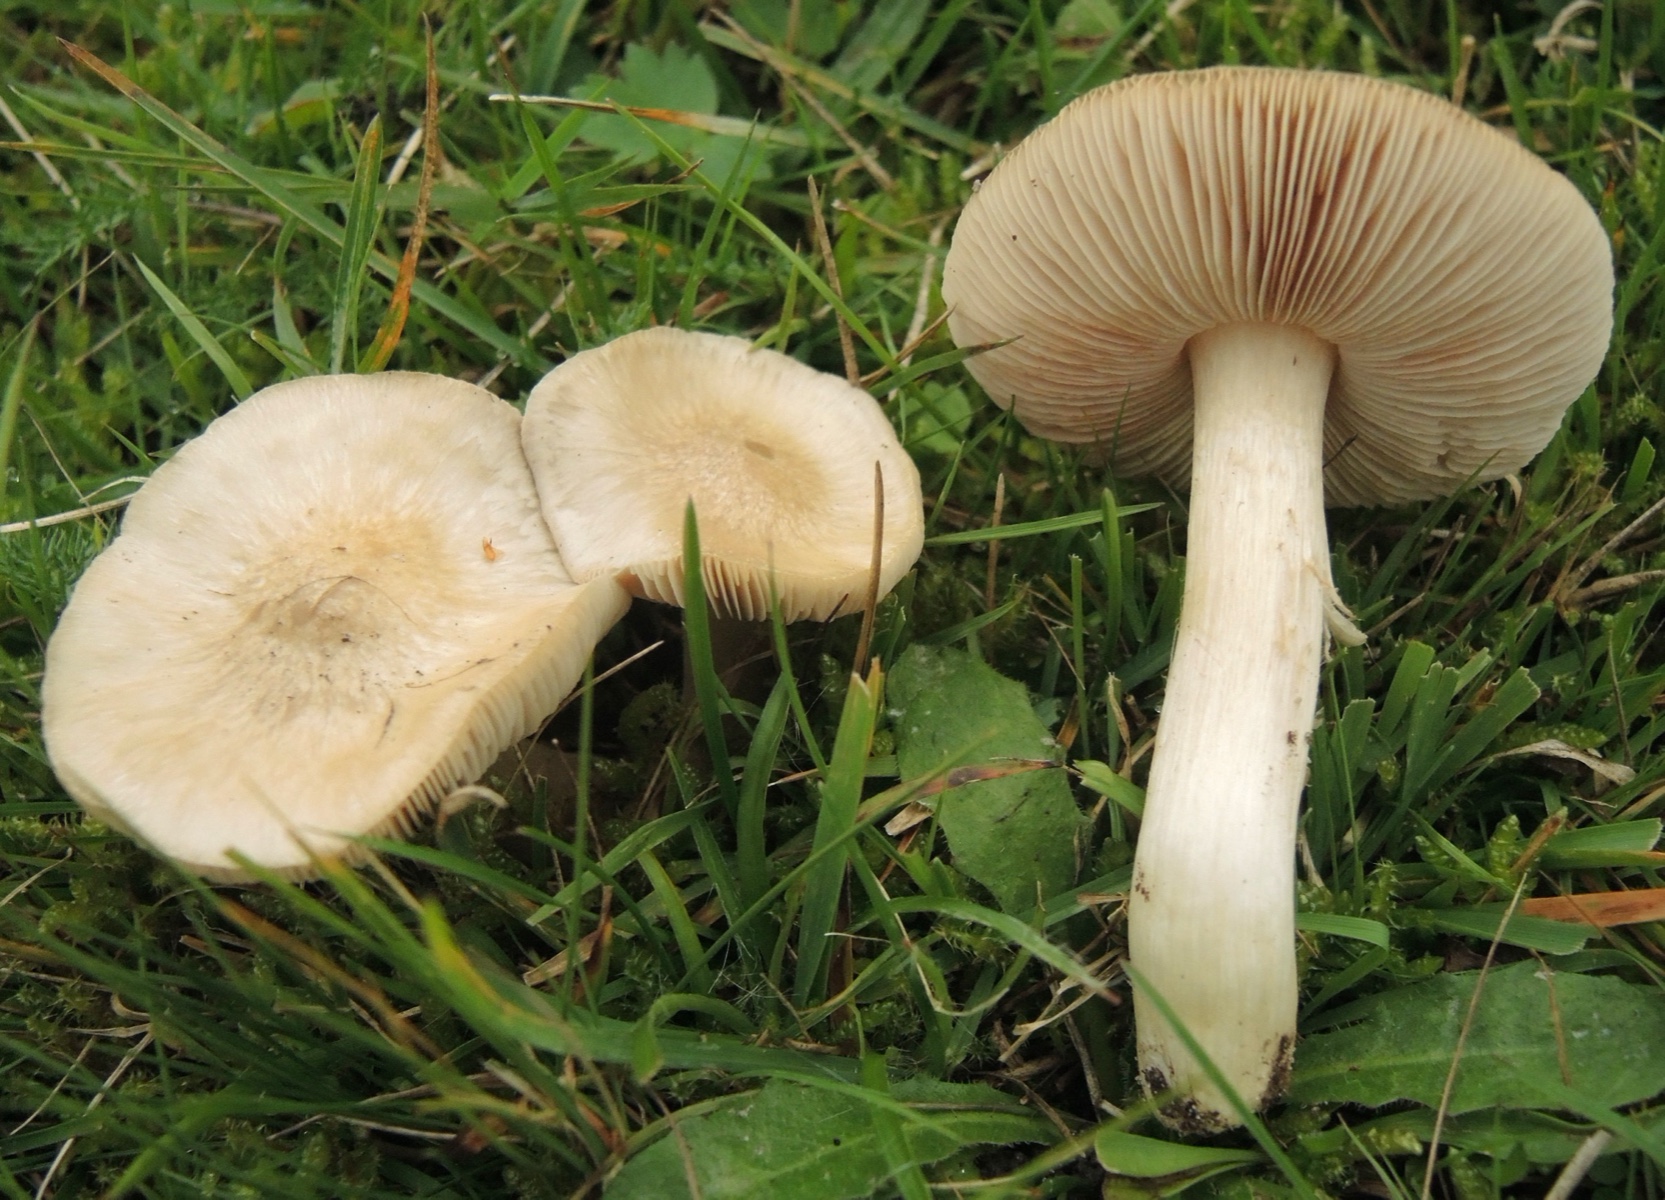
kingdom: Fungi
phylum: Basidiomycota
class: Agaricomycetes
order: Agaricales
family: Entolomataceae
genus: Entoloma
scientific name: Entoloma prunuloides
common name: mel-rødblad
